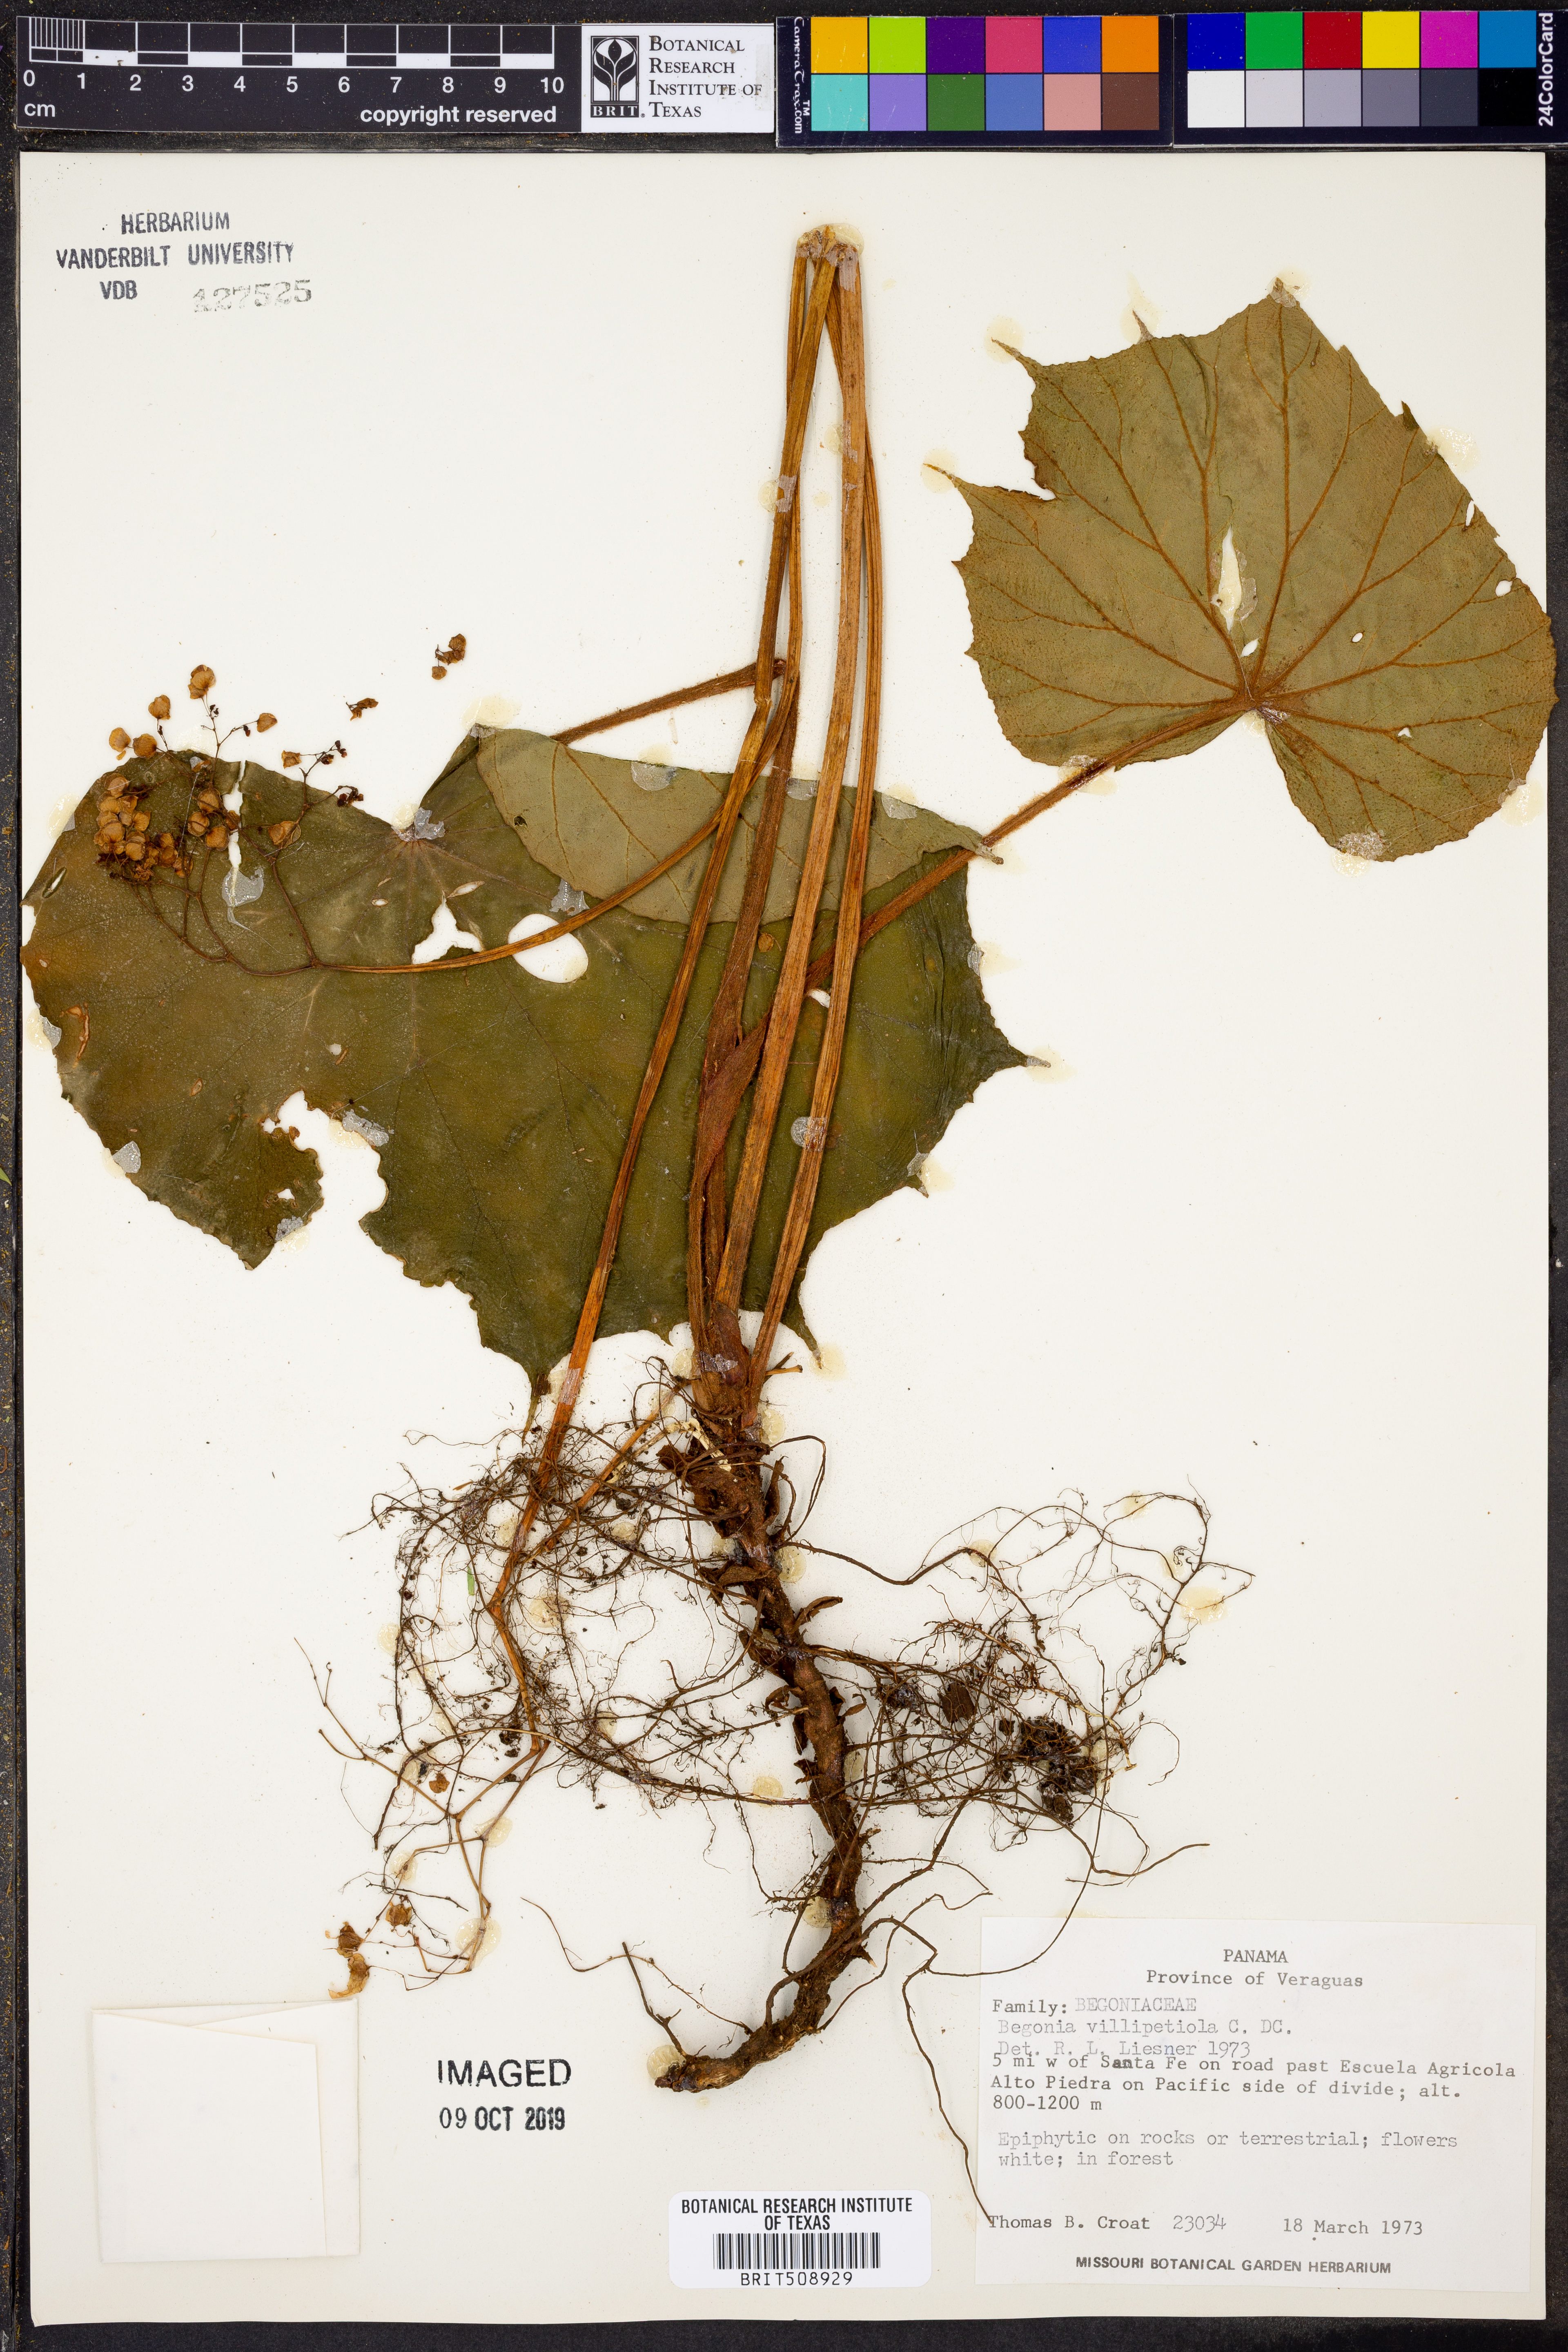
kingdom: Plantae
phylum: Tracheophyta
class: Magnoliopsida
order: Cucurbitales
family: Begoniaceae
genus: Begonia
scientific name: Begonia urophylla
